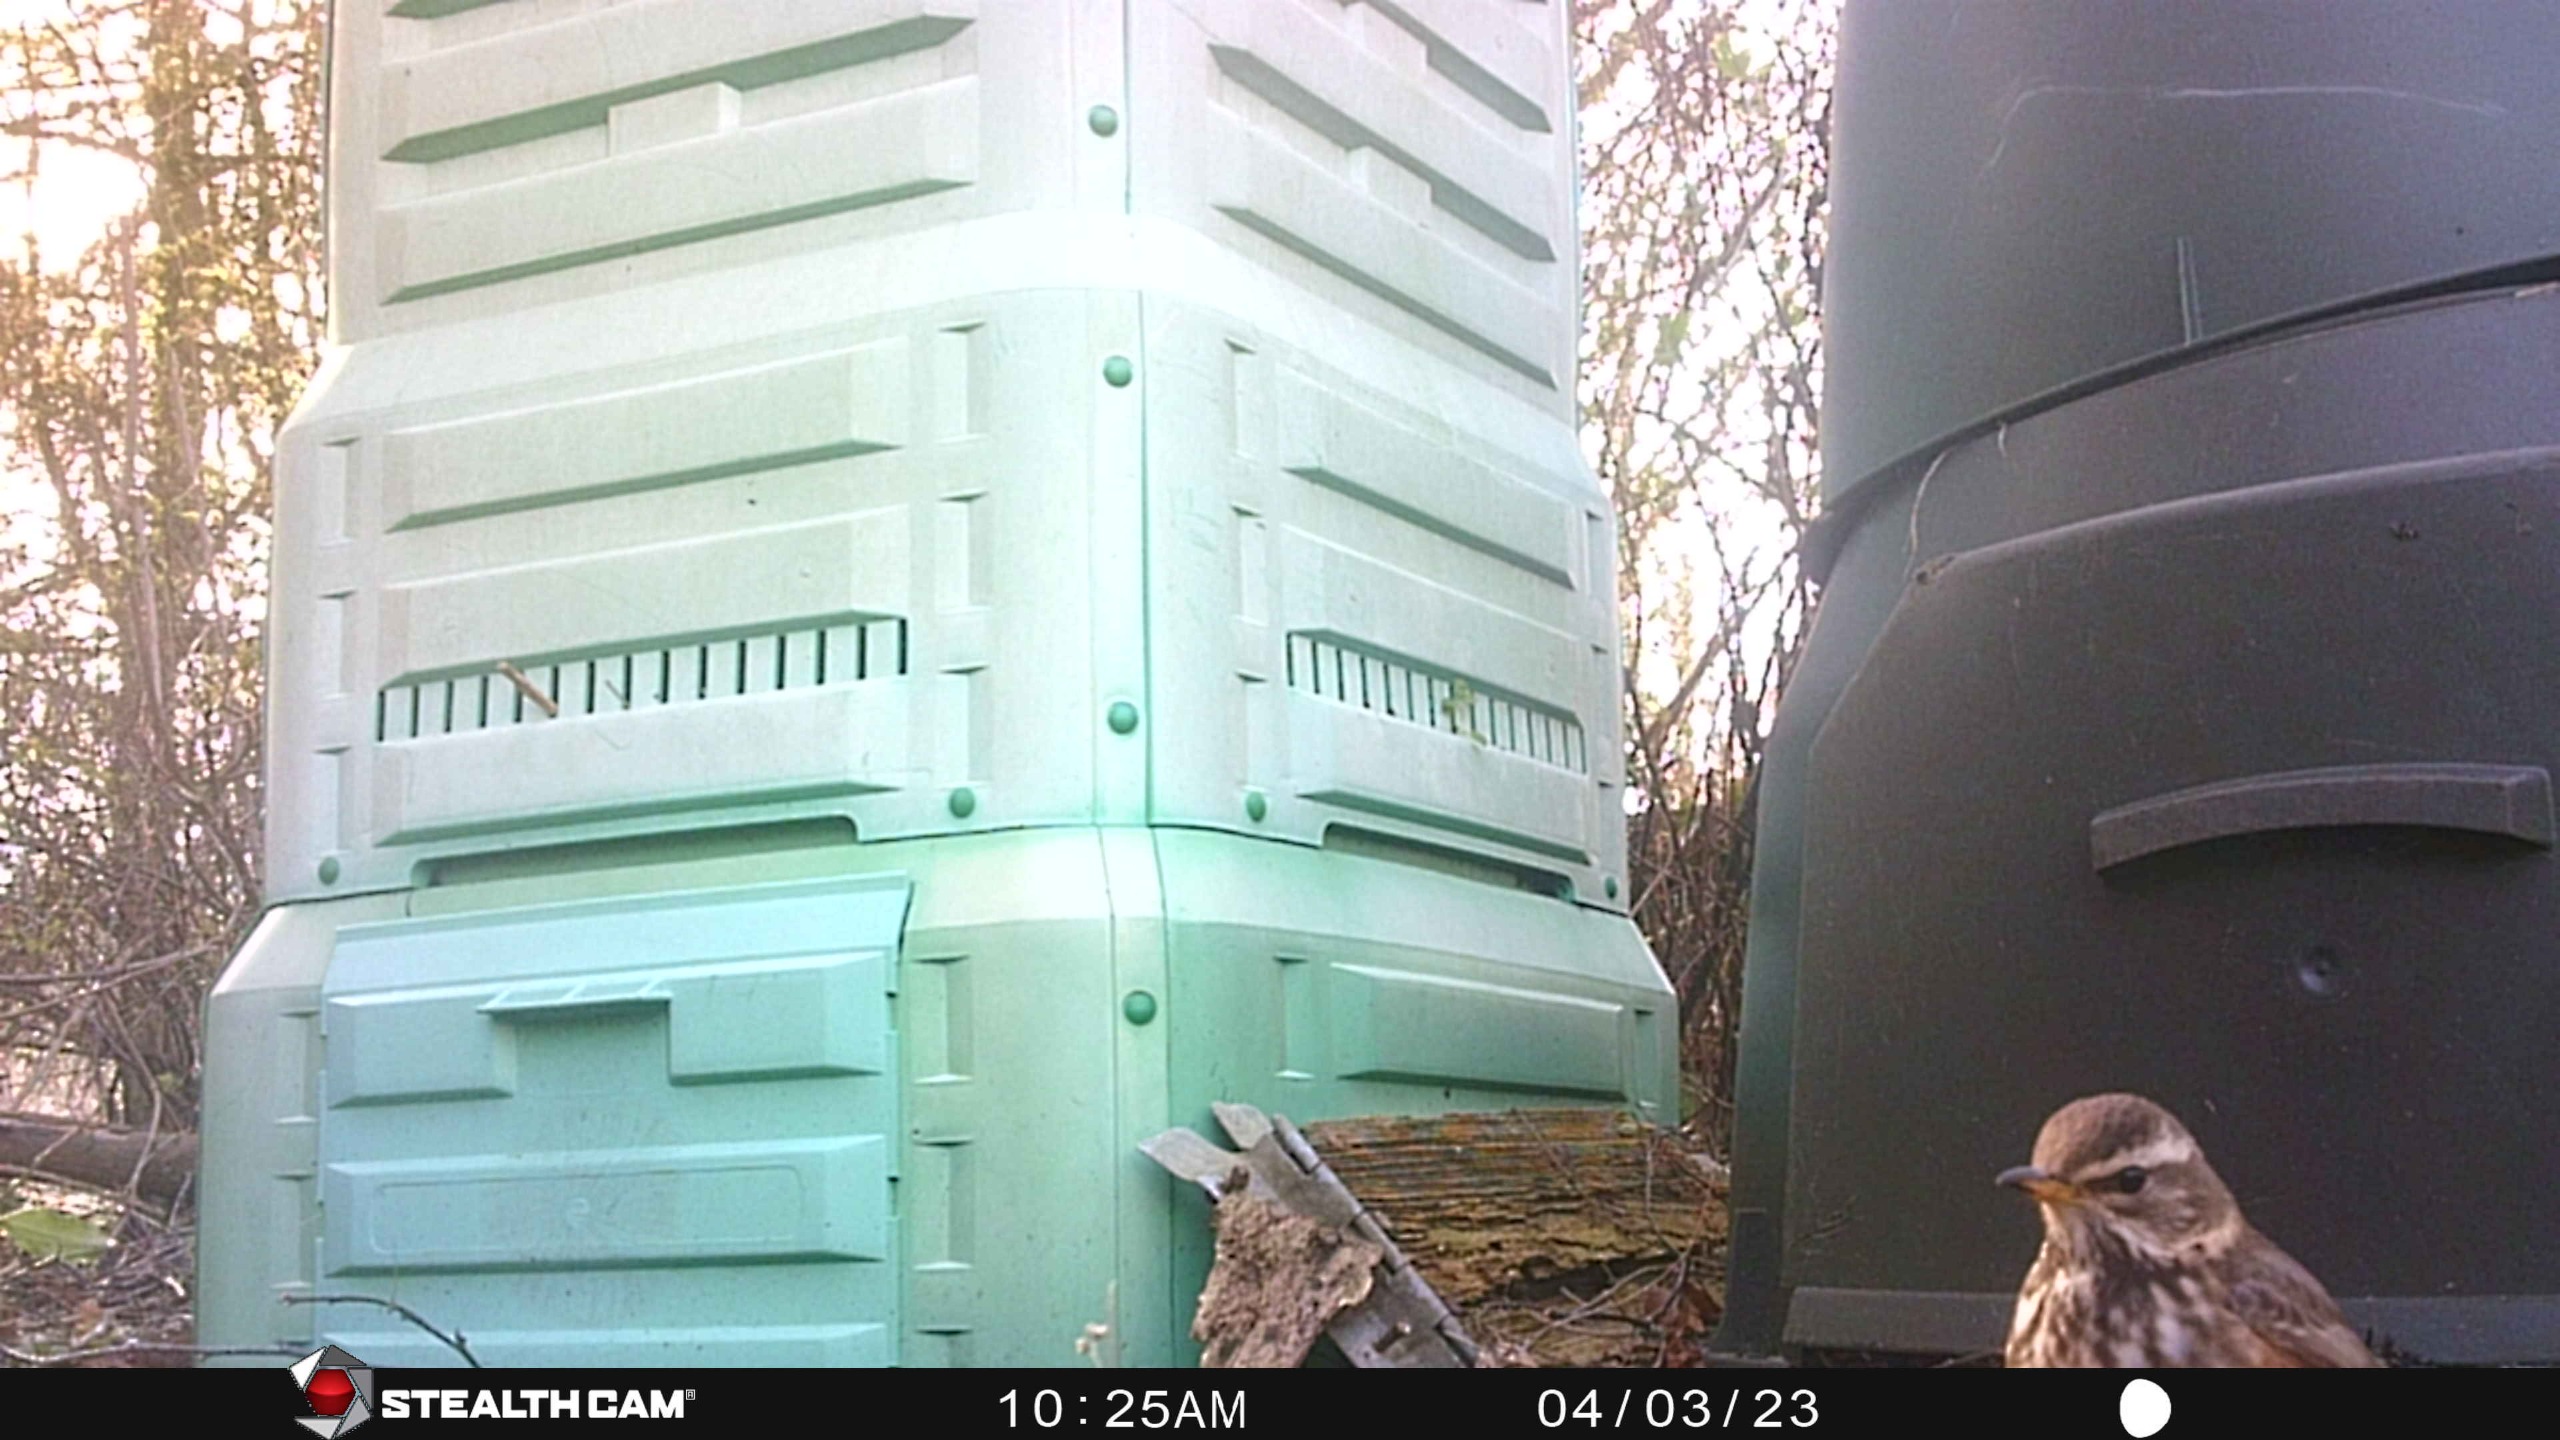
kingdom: Animalia
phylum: Chordata
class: Aves
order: Passeriformes
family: Turdidae
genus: Turdus
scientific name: Turdus iliacus
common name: Vindrossel
